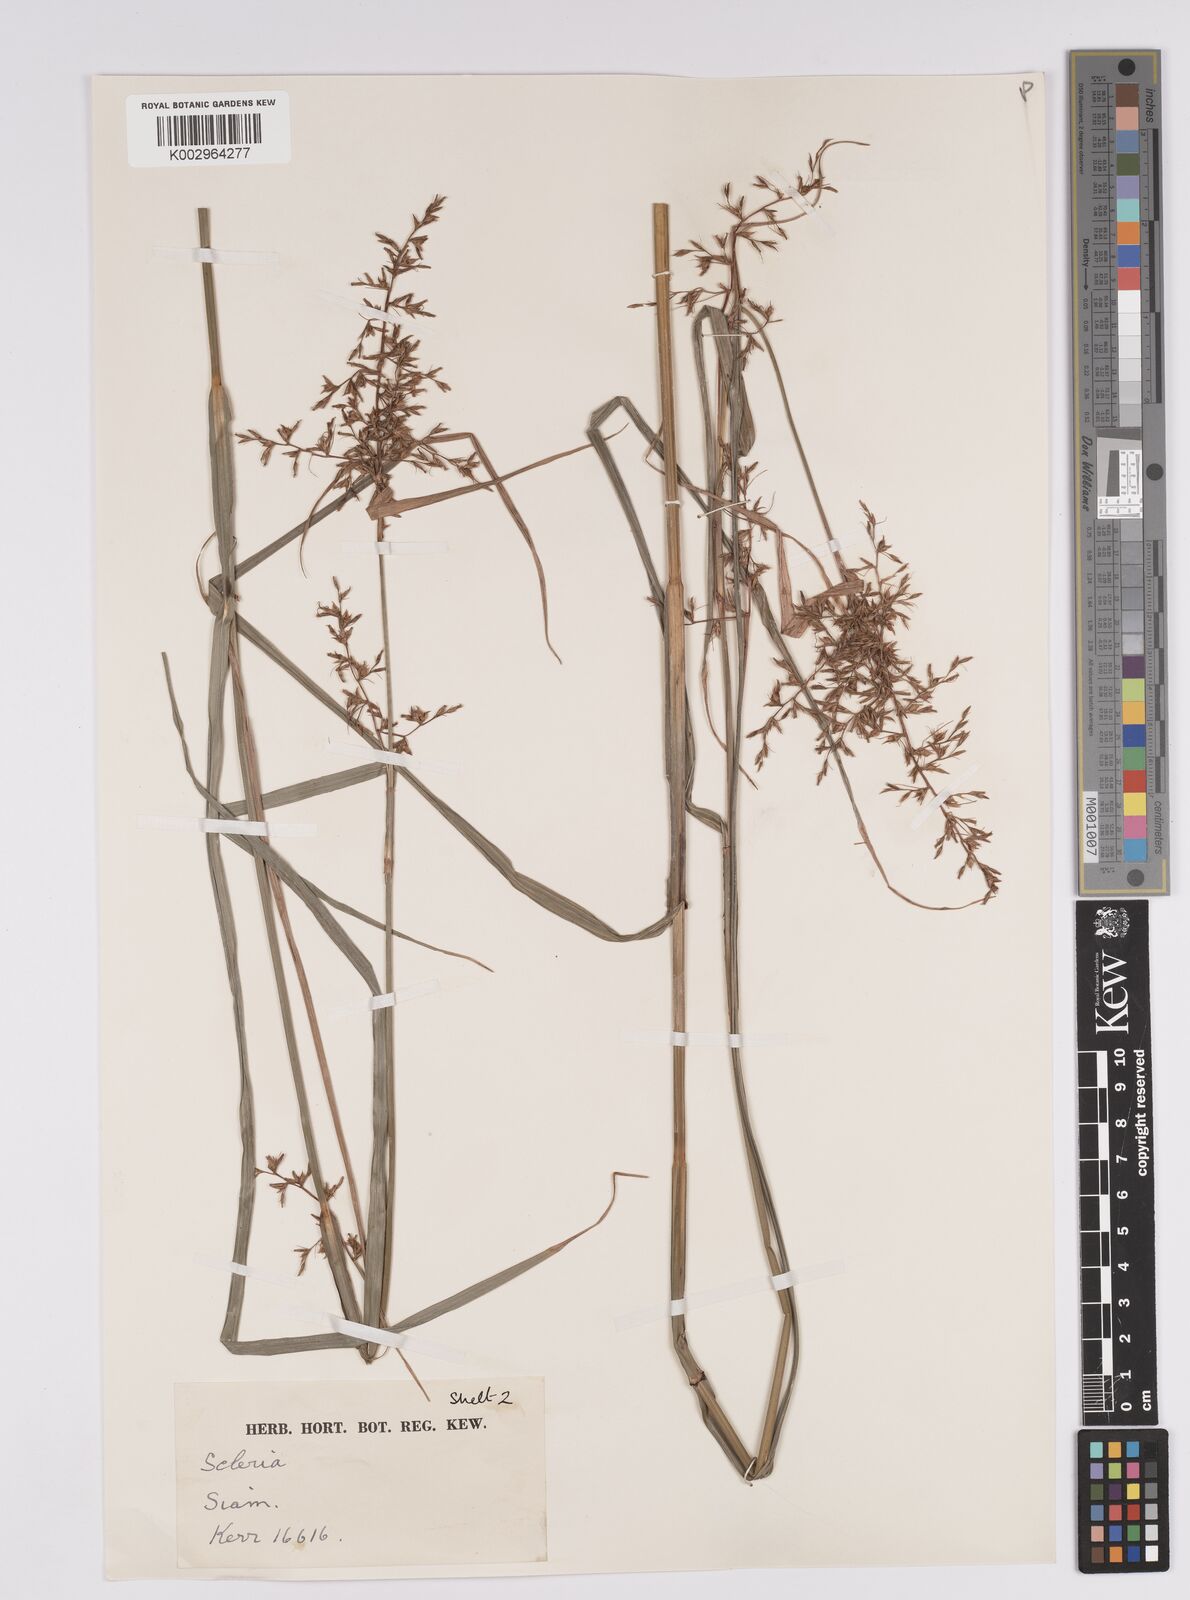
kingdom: Plantae
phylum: Tracheophyta
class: Liliopsida
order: Poales
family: Cyperaceae
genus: Scleria
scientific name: Scleria
